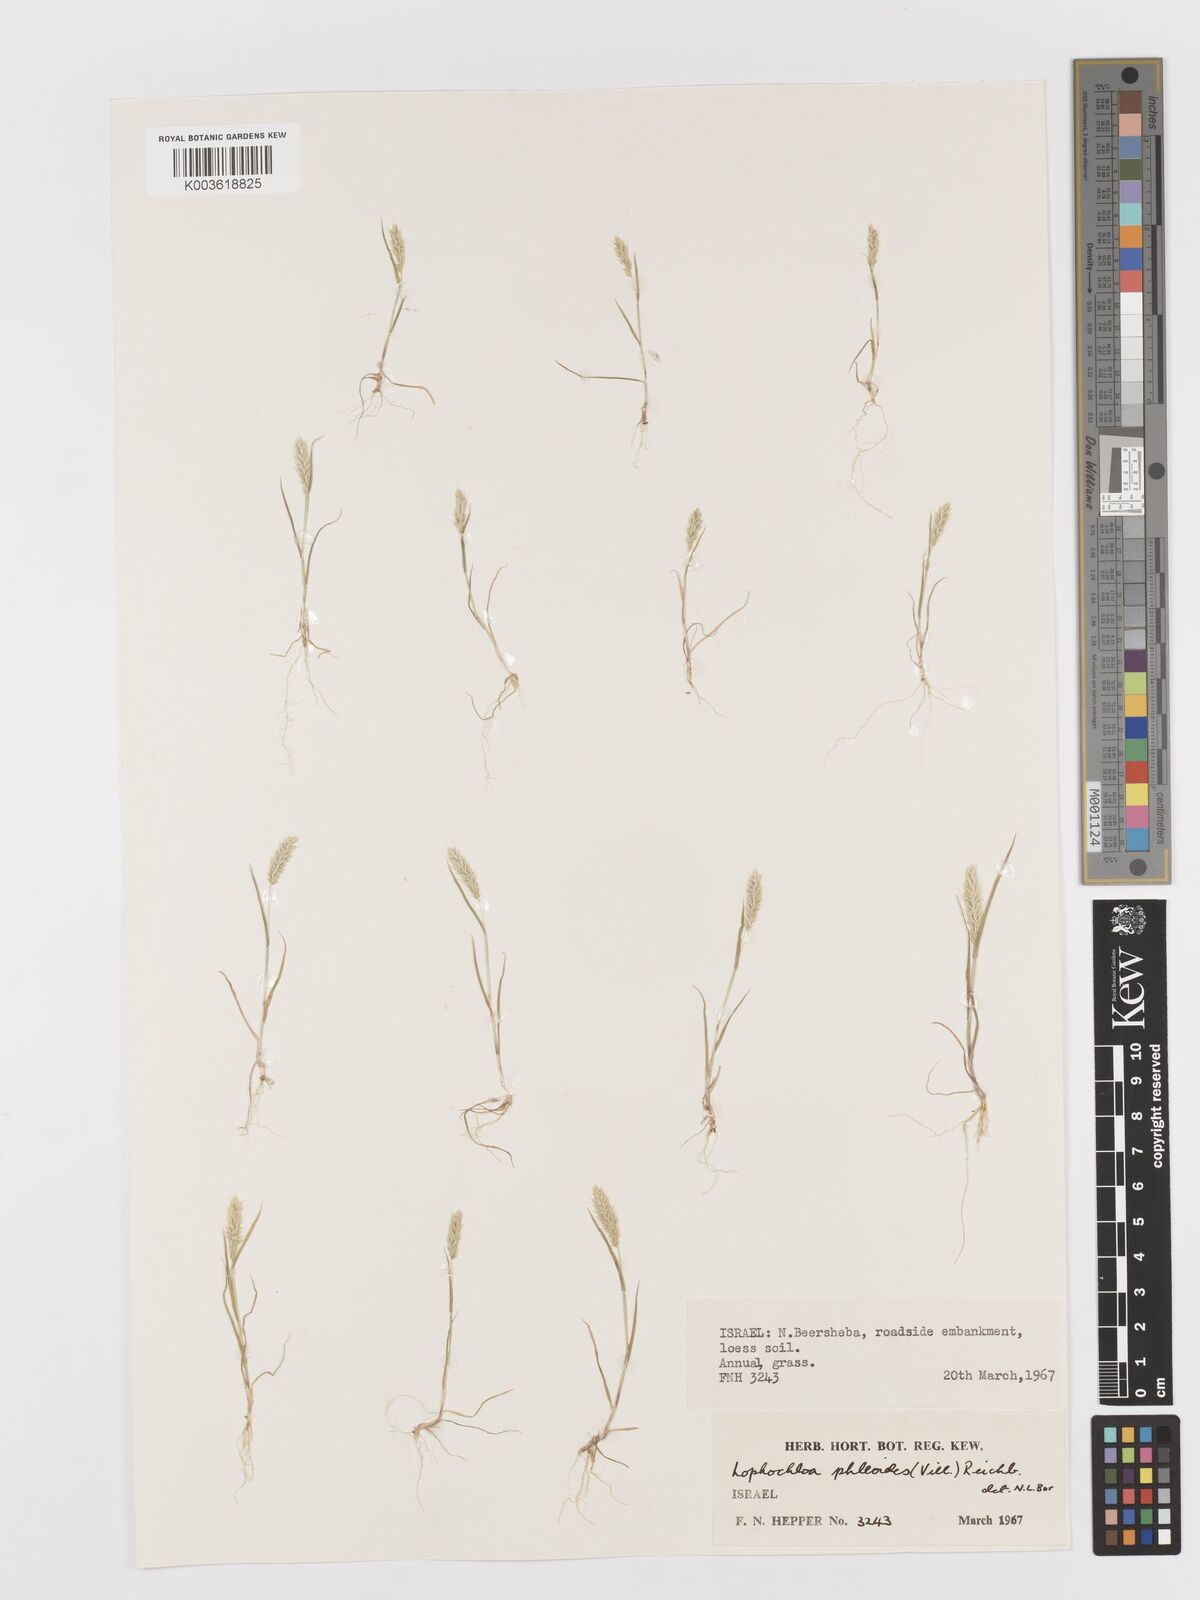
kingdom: Plantae
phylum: Tracheophyta
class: Liliopsida
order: Poales
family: Poaceae
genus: Rostraria
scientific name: Rostraria cristata
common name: Mediterranean hair-grass
